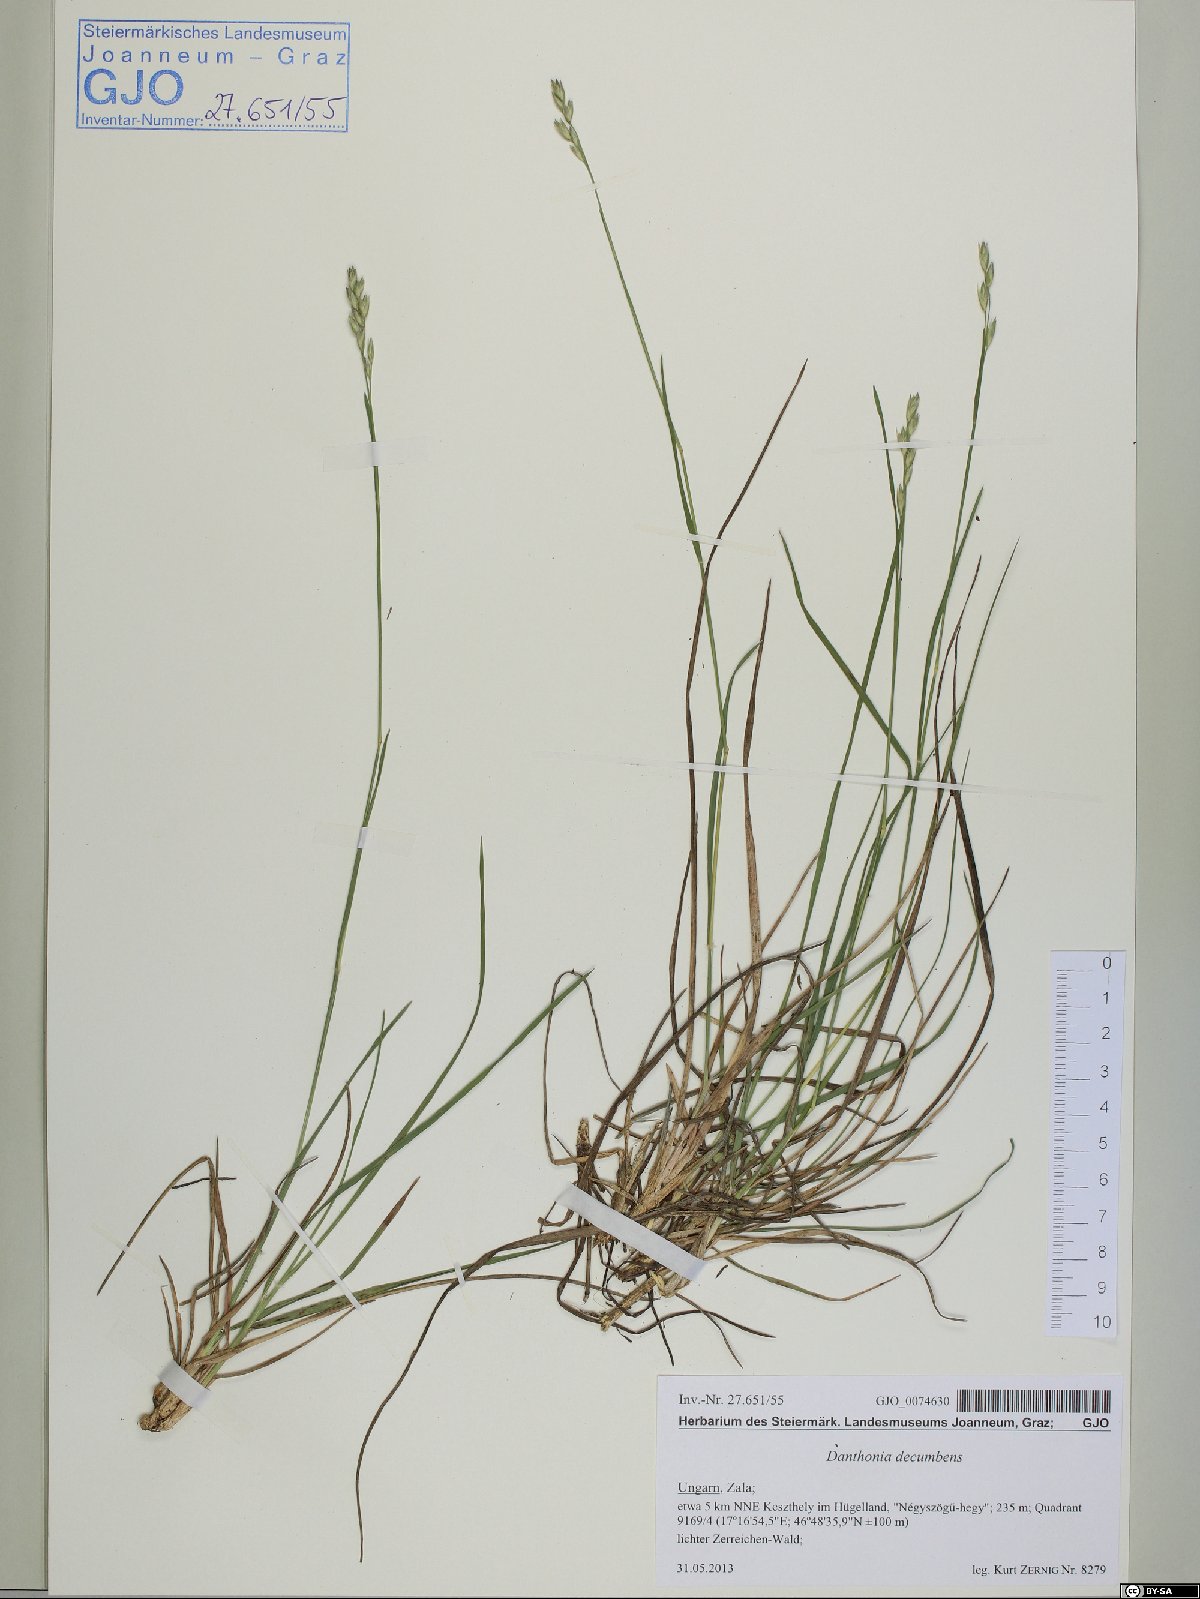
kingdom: Plantae
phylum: Tracheophyta
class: Liliopsida
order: Poales
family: Poaceae
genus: Danthonia
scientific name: Danthonia decumbens
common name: Common heathgrass
